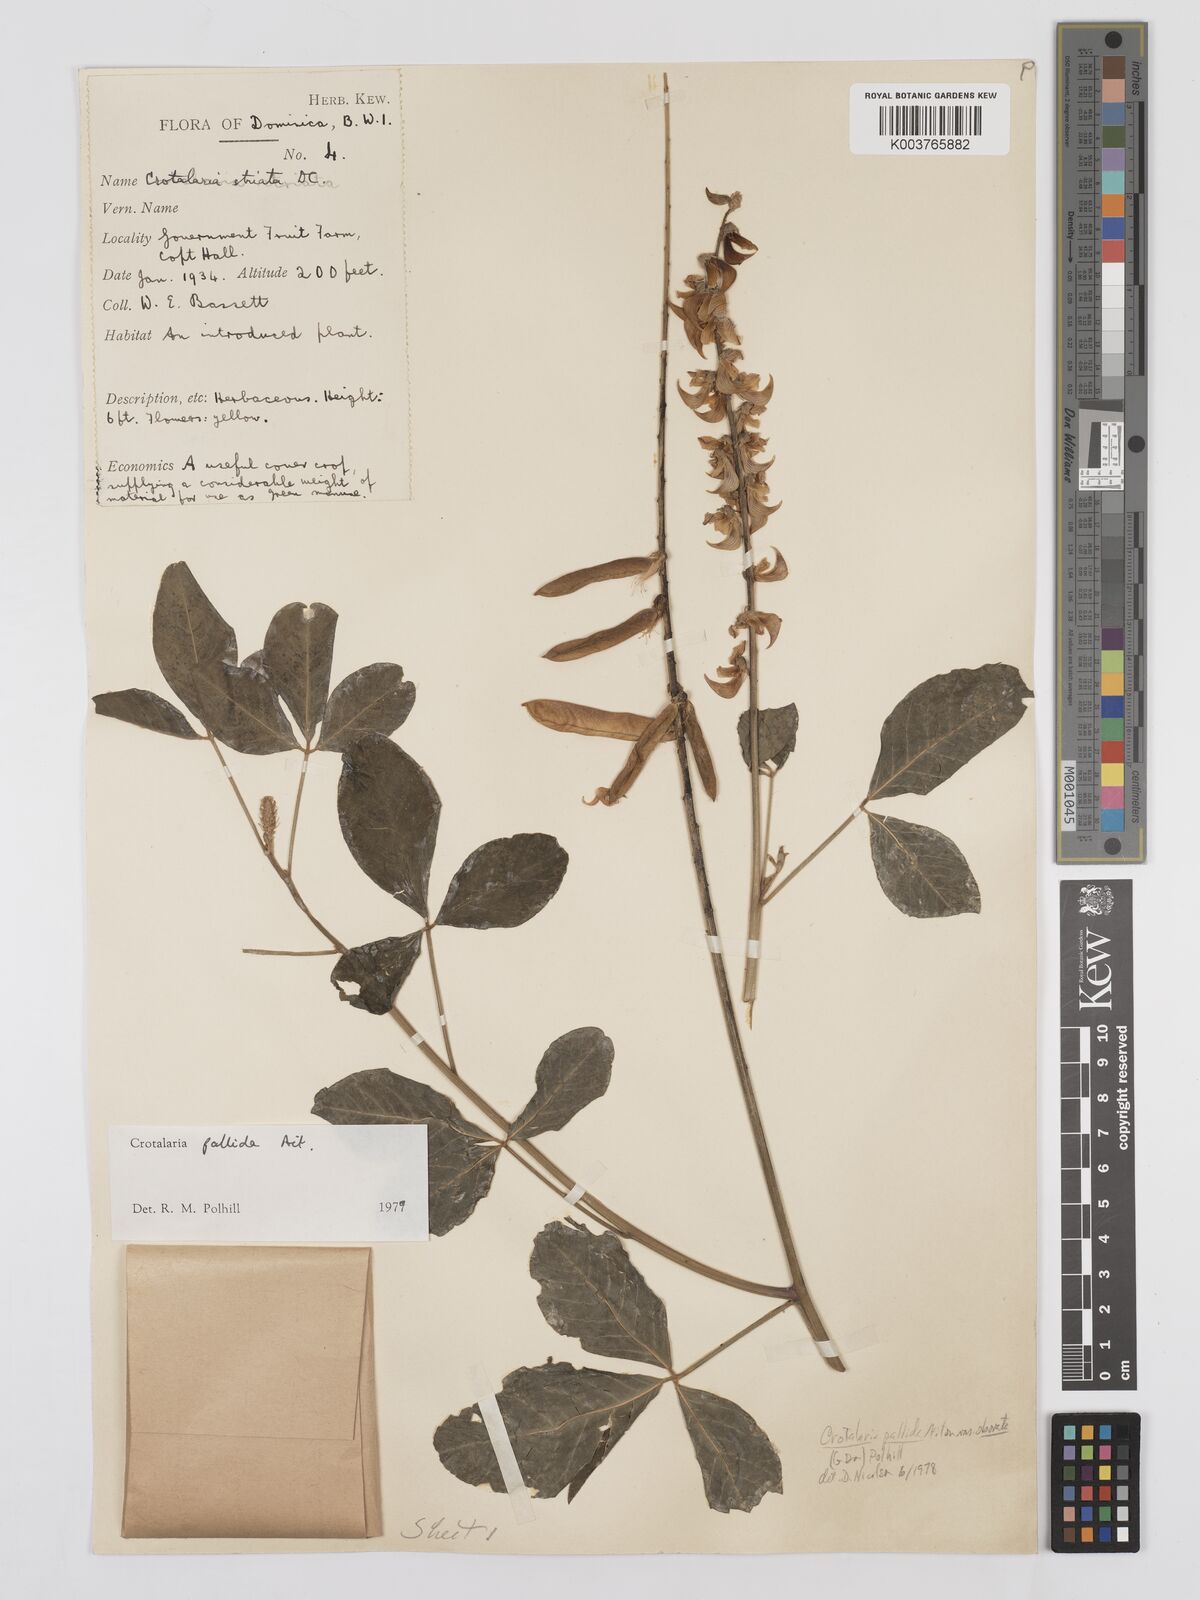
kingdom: Plantae
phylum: Tracheophyta
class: Magnoliopsida
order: Fabales
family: Fabaceae
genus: Crotalaria
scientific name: Crotalaria pallida
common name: Smooth rattlebox
